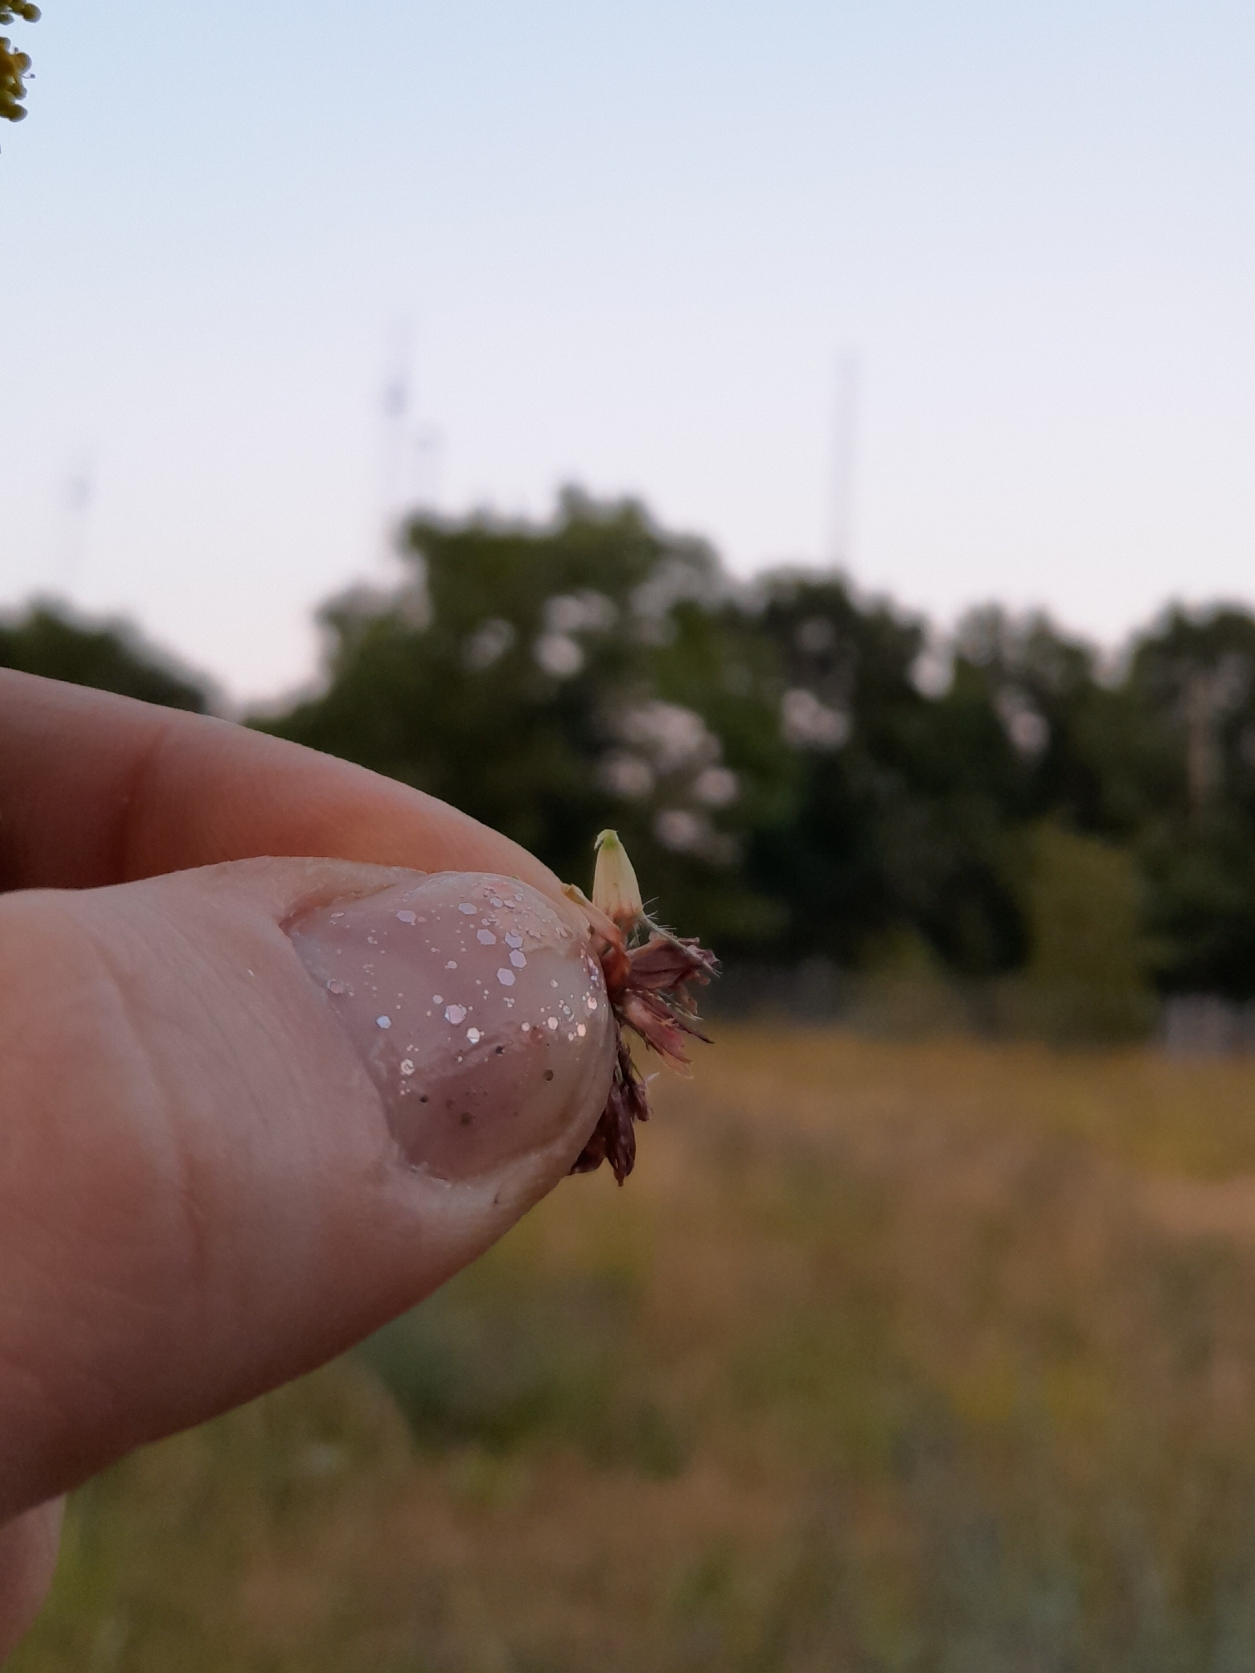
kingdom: Plantae
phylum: Tracheophyta
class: Magnoliopsida
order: Fabales
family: Fabaceae
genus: Trifolium
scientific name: Trifolium medium
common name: Bugtet kløver
